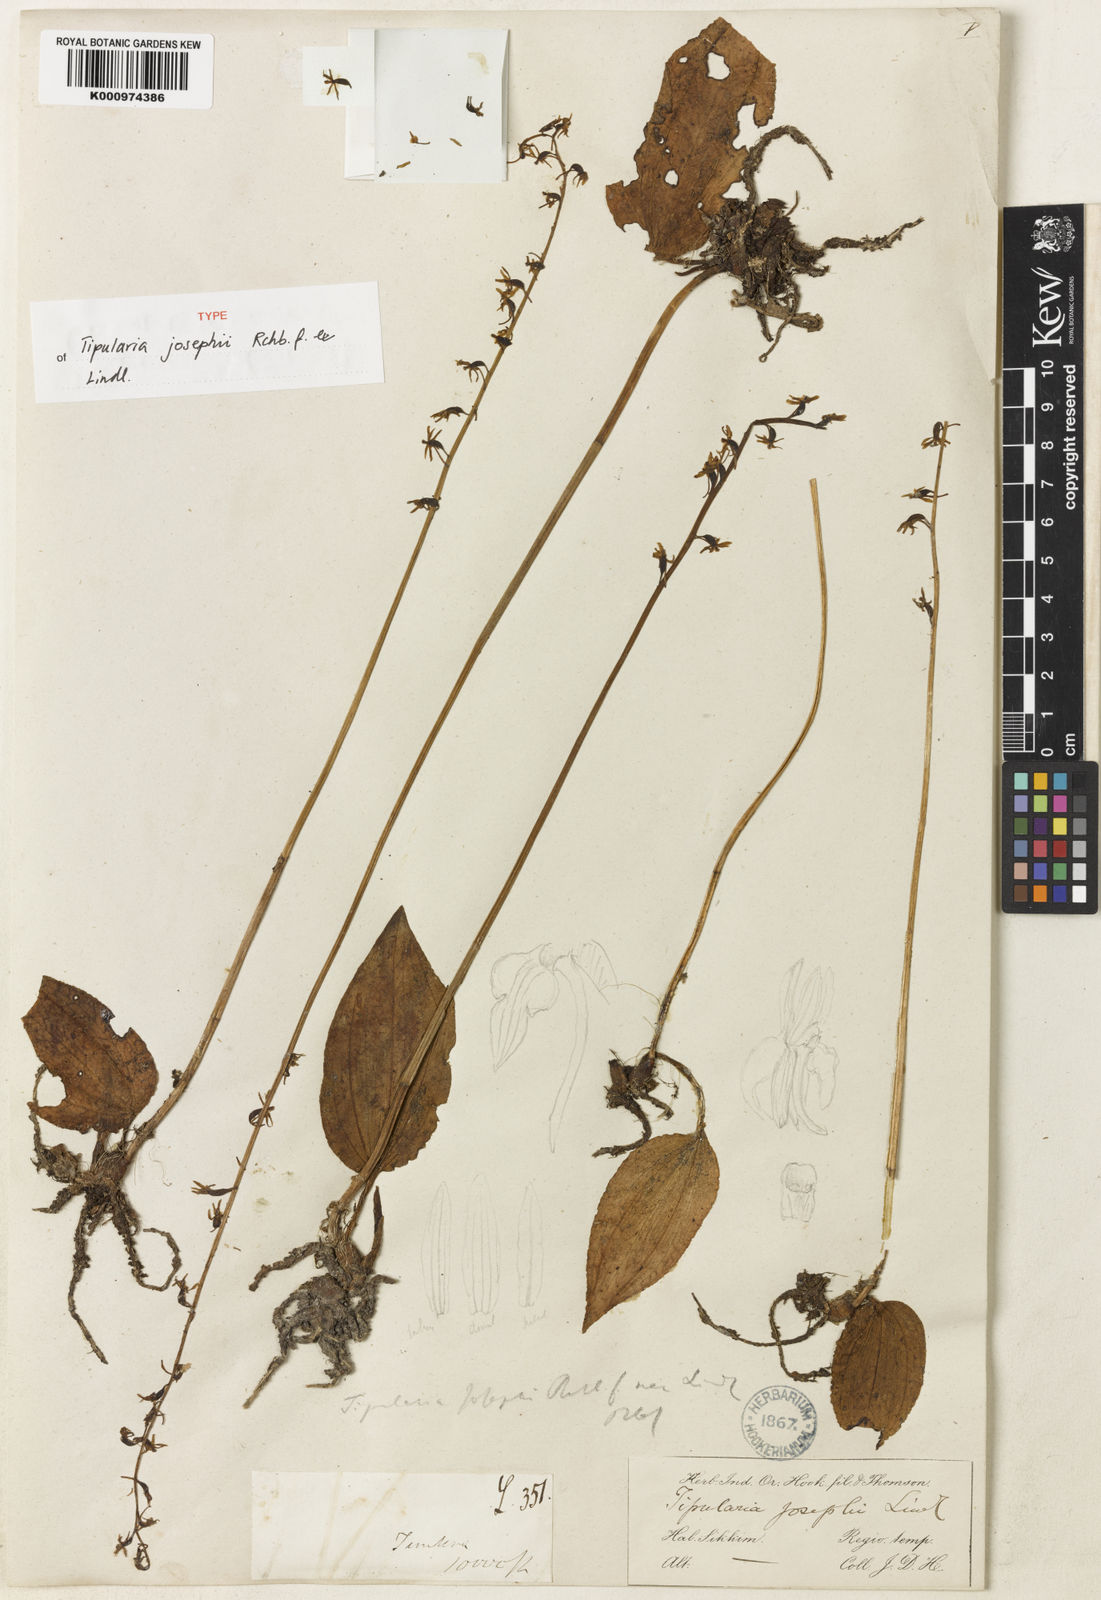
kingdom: Plantae
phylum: Tracheophyta
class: Liliopsida
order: Asparagales
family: Orchidaceae
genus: Tipularia
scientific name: Tipularia josephi
